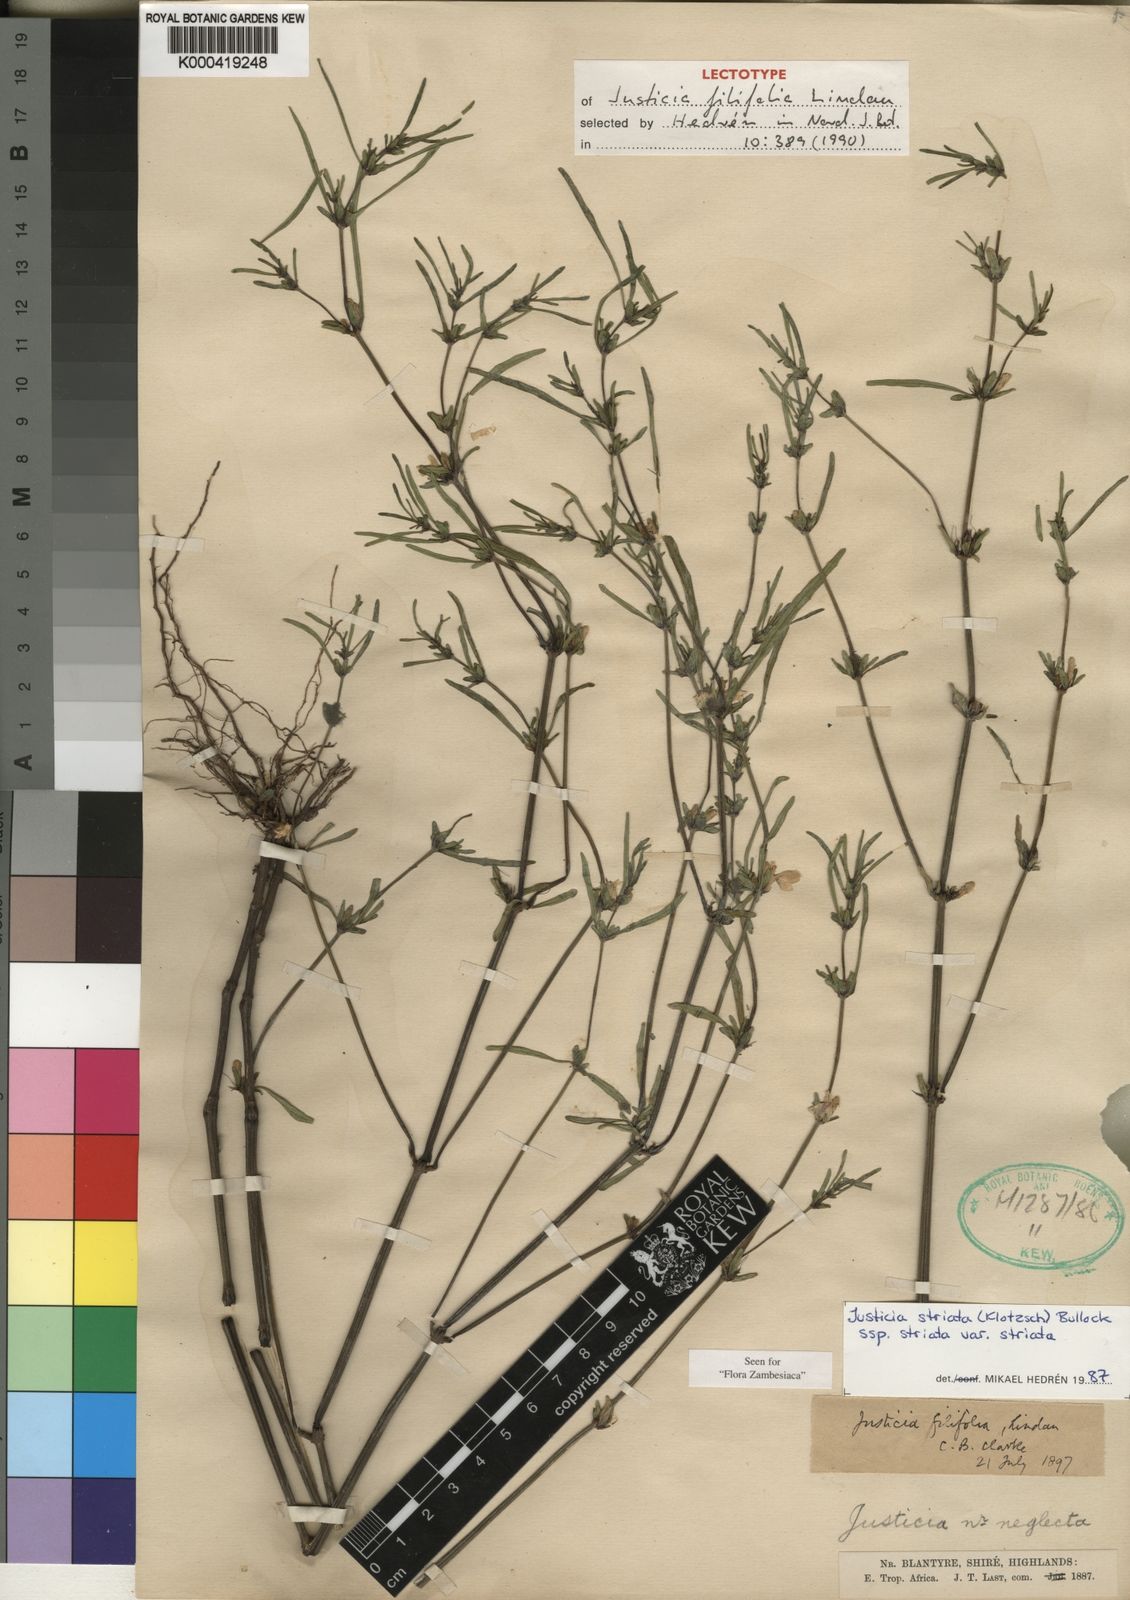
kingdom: Plantae
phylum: Tracheophyta
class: Magnoliopsida
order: Lamiales
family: Acanthaceae
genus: Justicia
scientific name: Justicia striata
